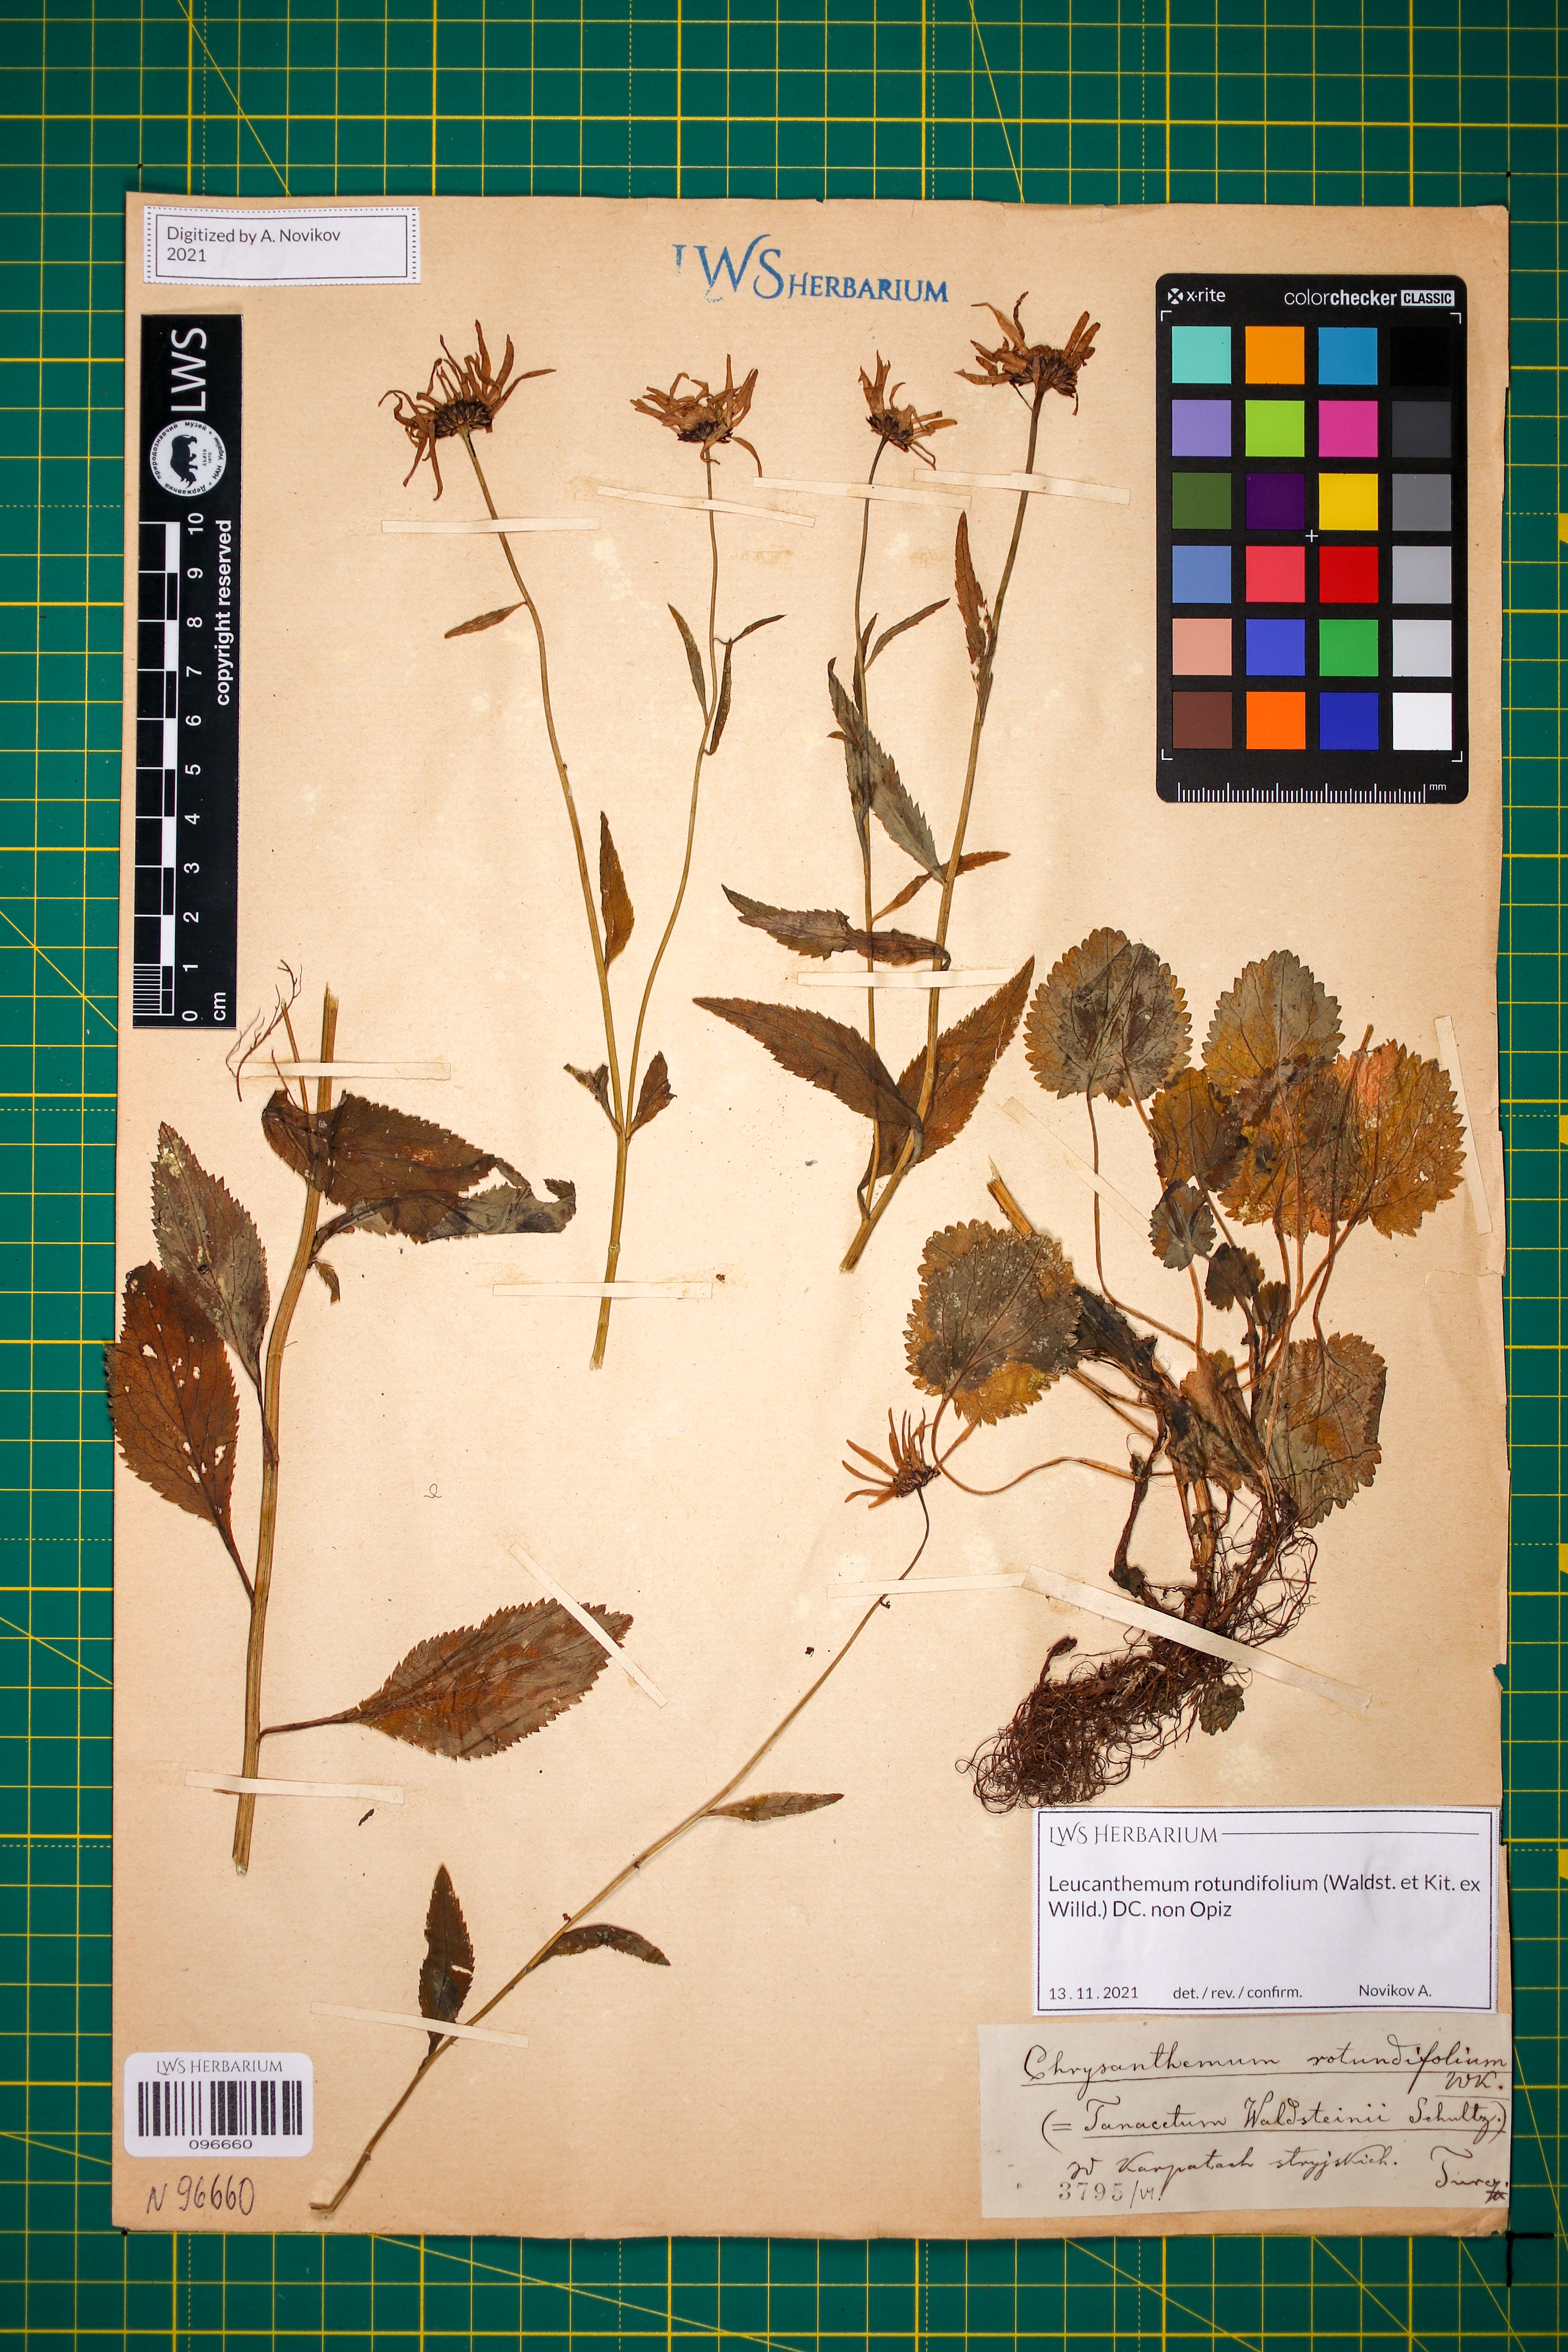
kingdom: Plantae
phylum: Tracheophyta
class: Magnoliopsida
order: Asterales
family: Asteraceae
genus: Leucanthemum
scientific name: Leucanthemum rotundifolium
